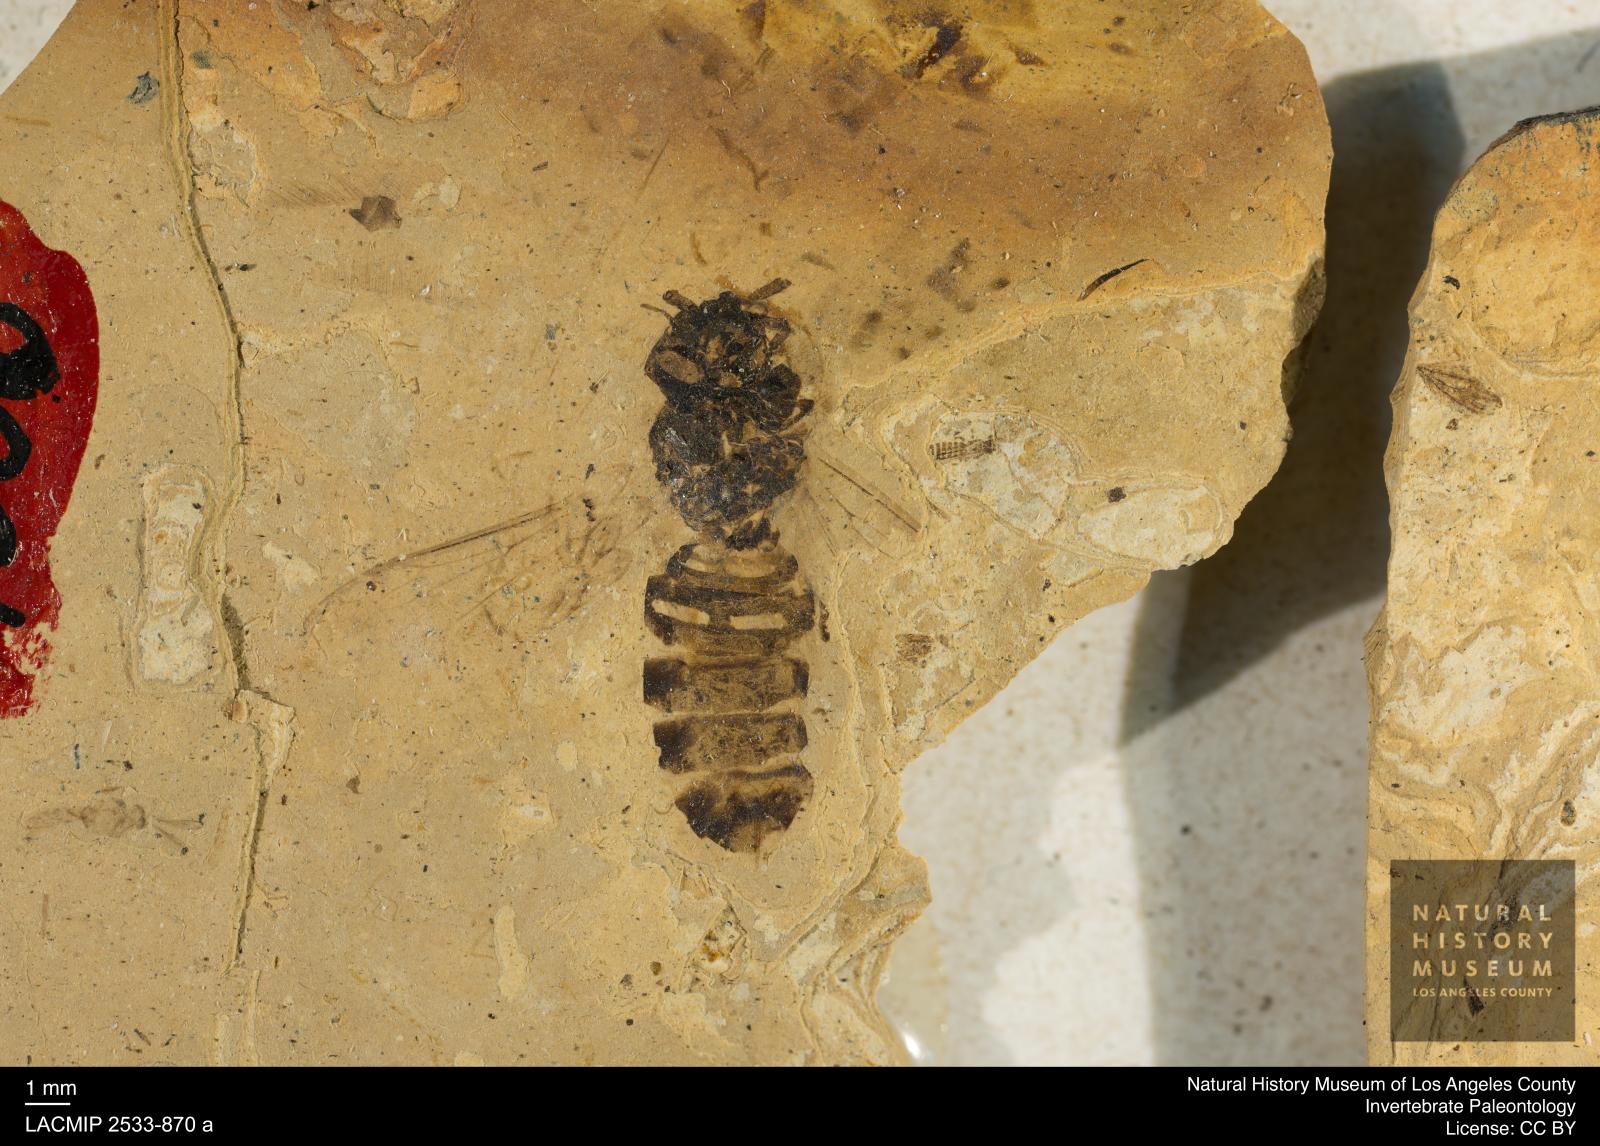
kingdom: Animalia
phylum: Arthropoda
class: Insecta
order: Hymenoptera
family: Vespidae
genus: Vespa
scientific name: Vespa bilineata
